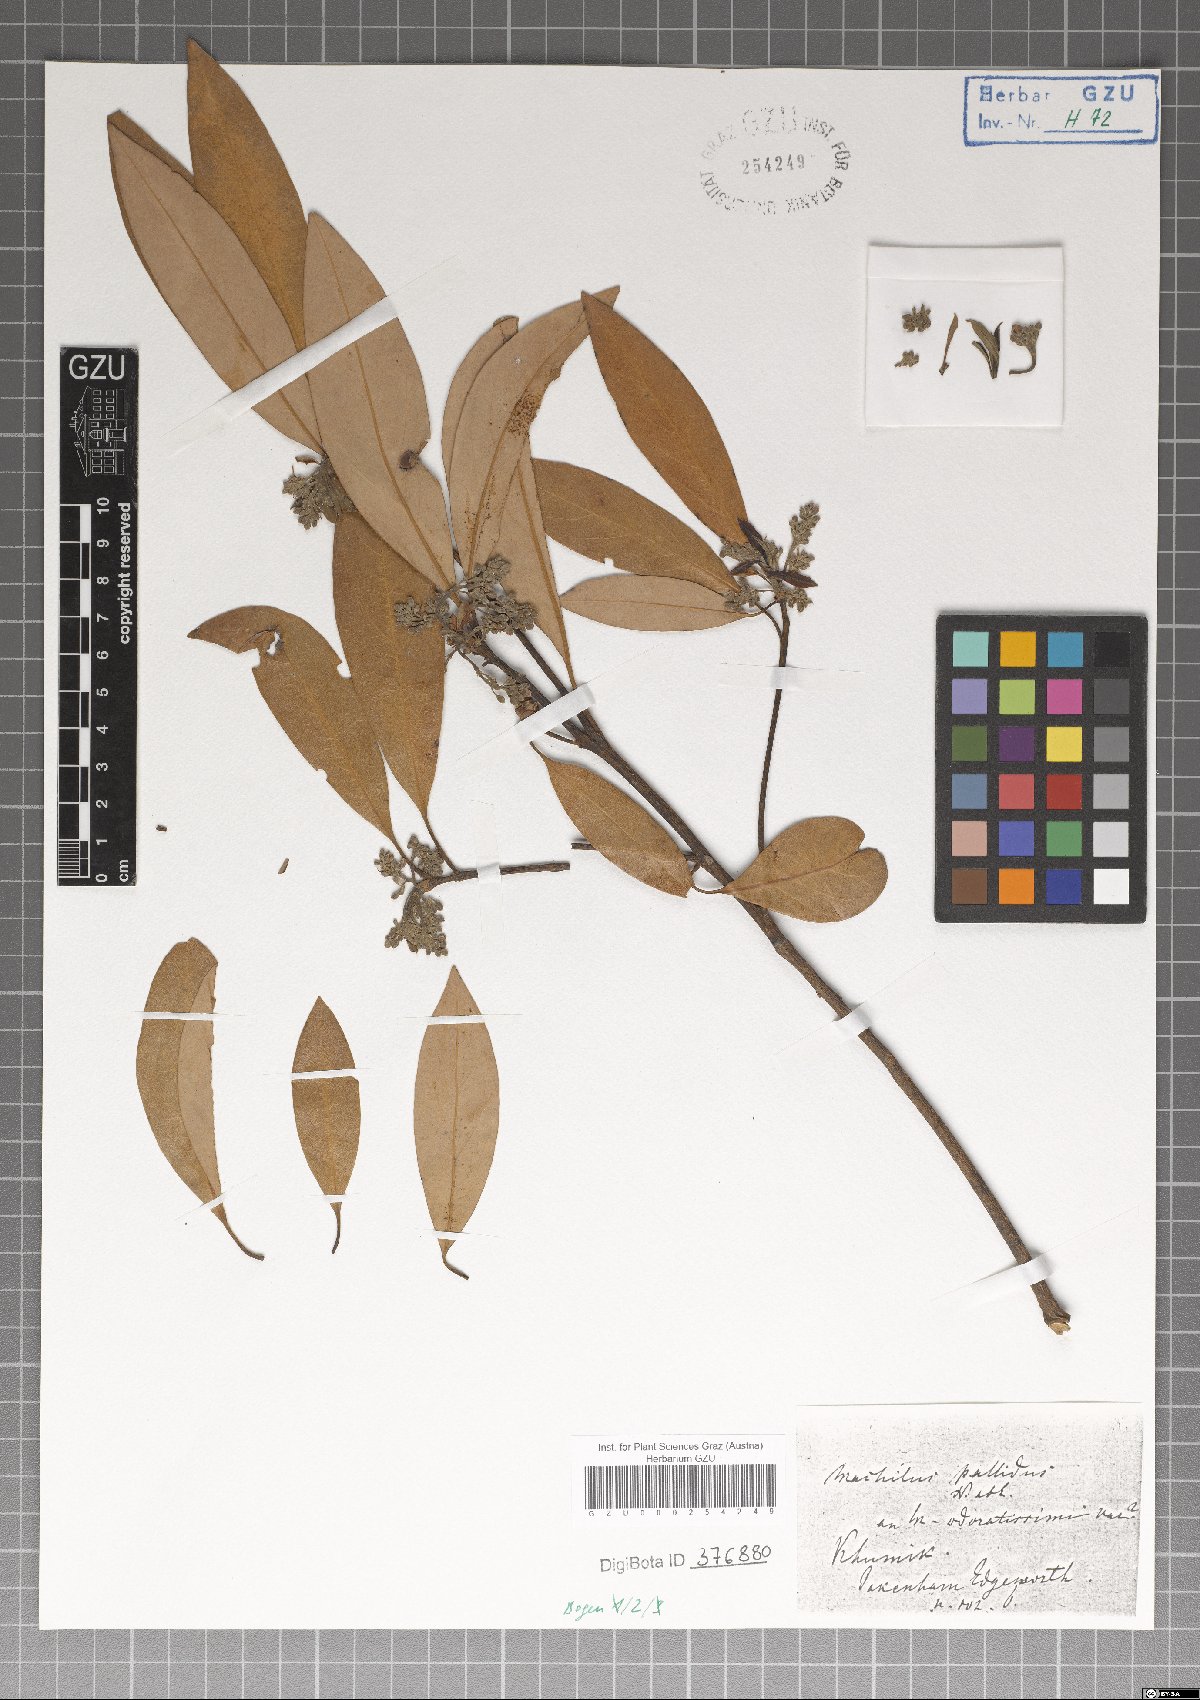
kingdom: Plantae
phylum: Tracheophyta
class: Magnoliopsida
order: Laurales
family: Lauraceae
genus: Persea
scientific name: Persea
